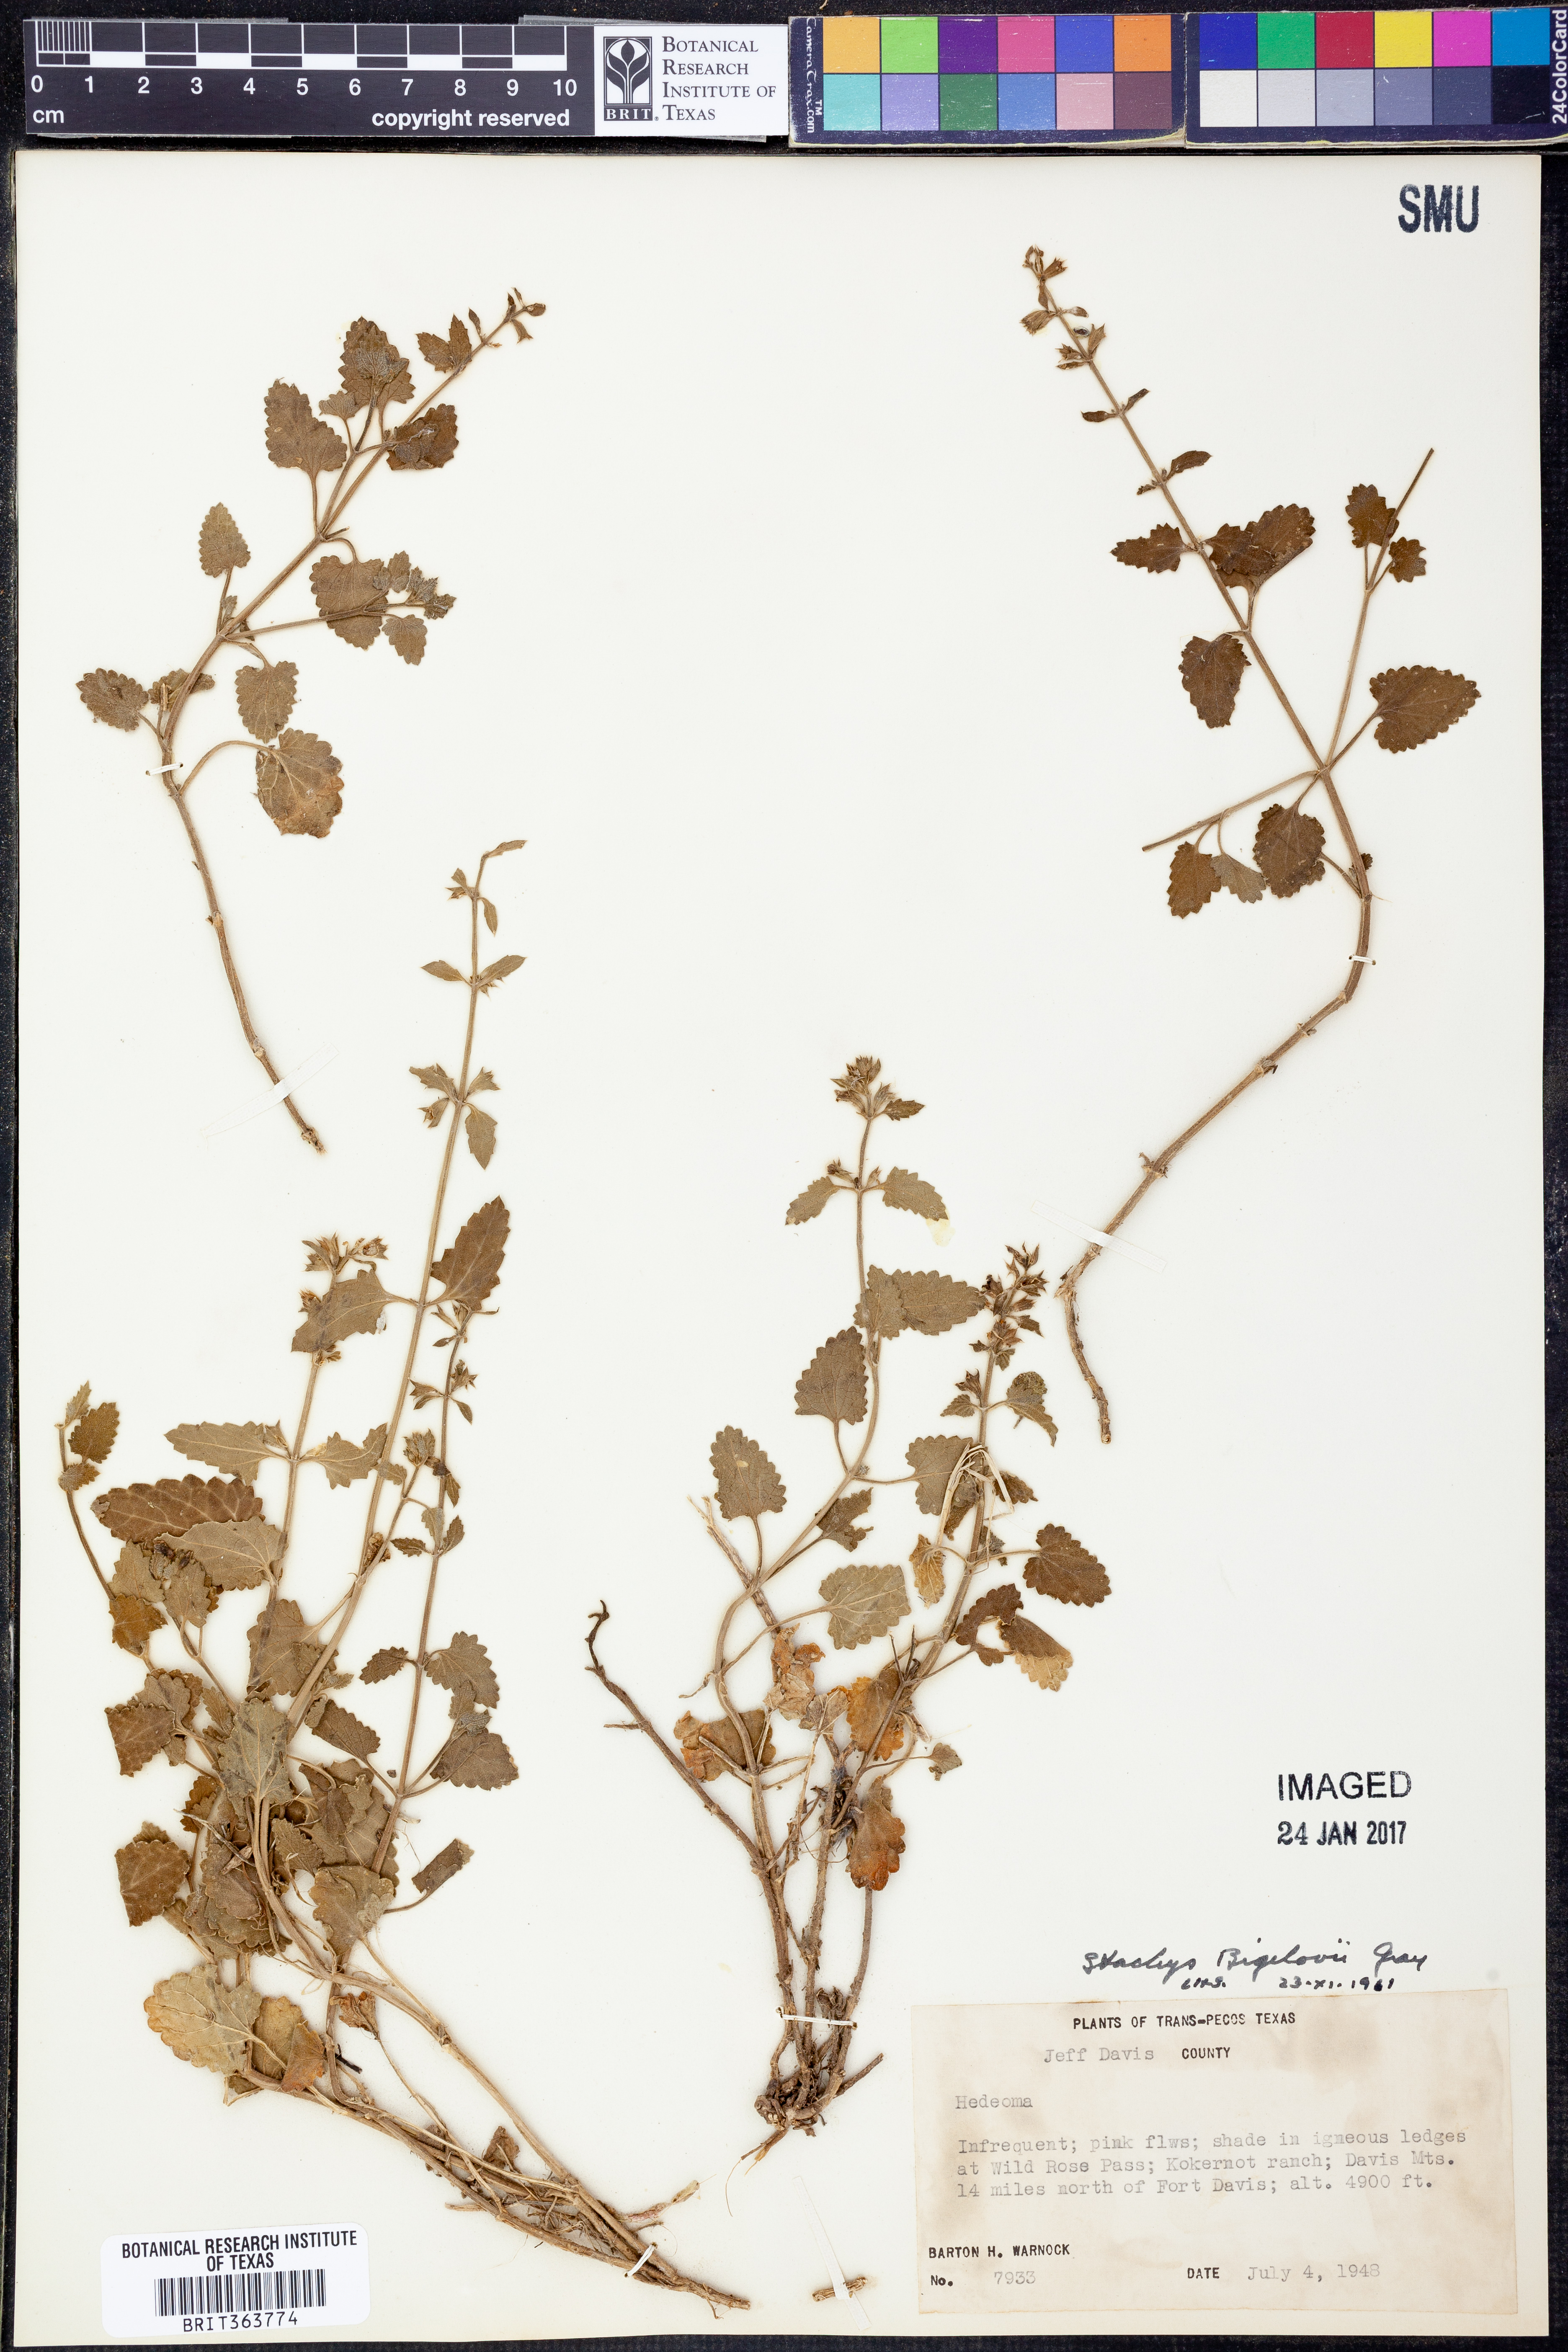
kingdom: Plantae
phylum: Tracheophyta
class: Magnoliopsida
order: Lamiales
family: Lamiaceae
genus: Stachys
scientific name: Stachys bigelovii
